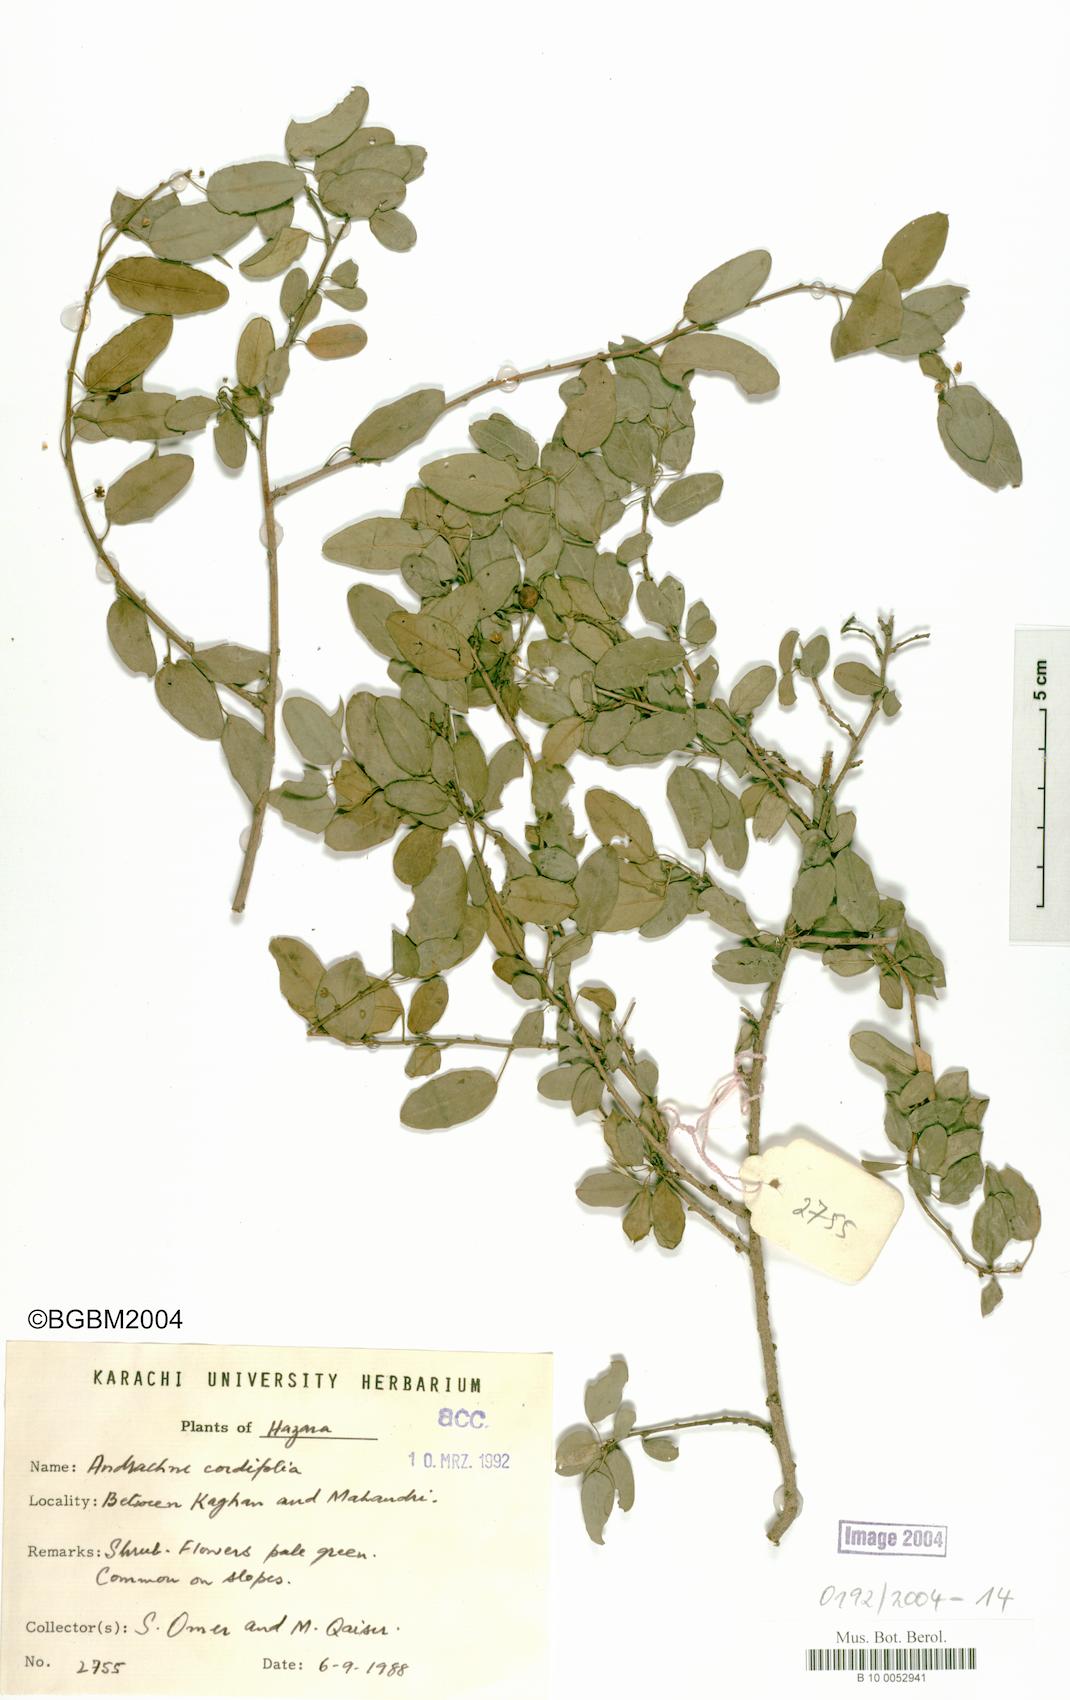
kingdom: Plantae
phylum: Tracheophyta
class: Magnoliopsida
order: Malpighiales
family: Phyllanthaceae
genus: Leptopus
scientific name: Leptopus cordifolius
